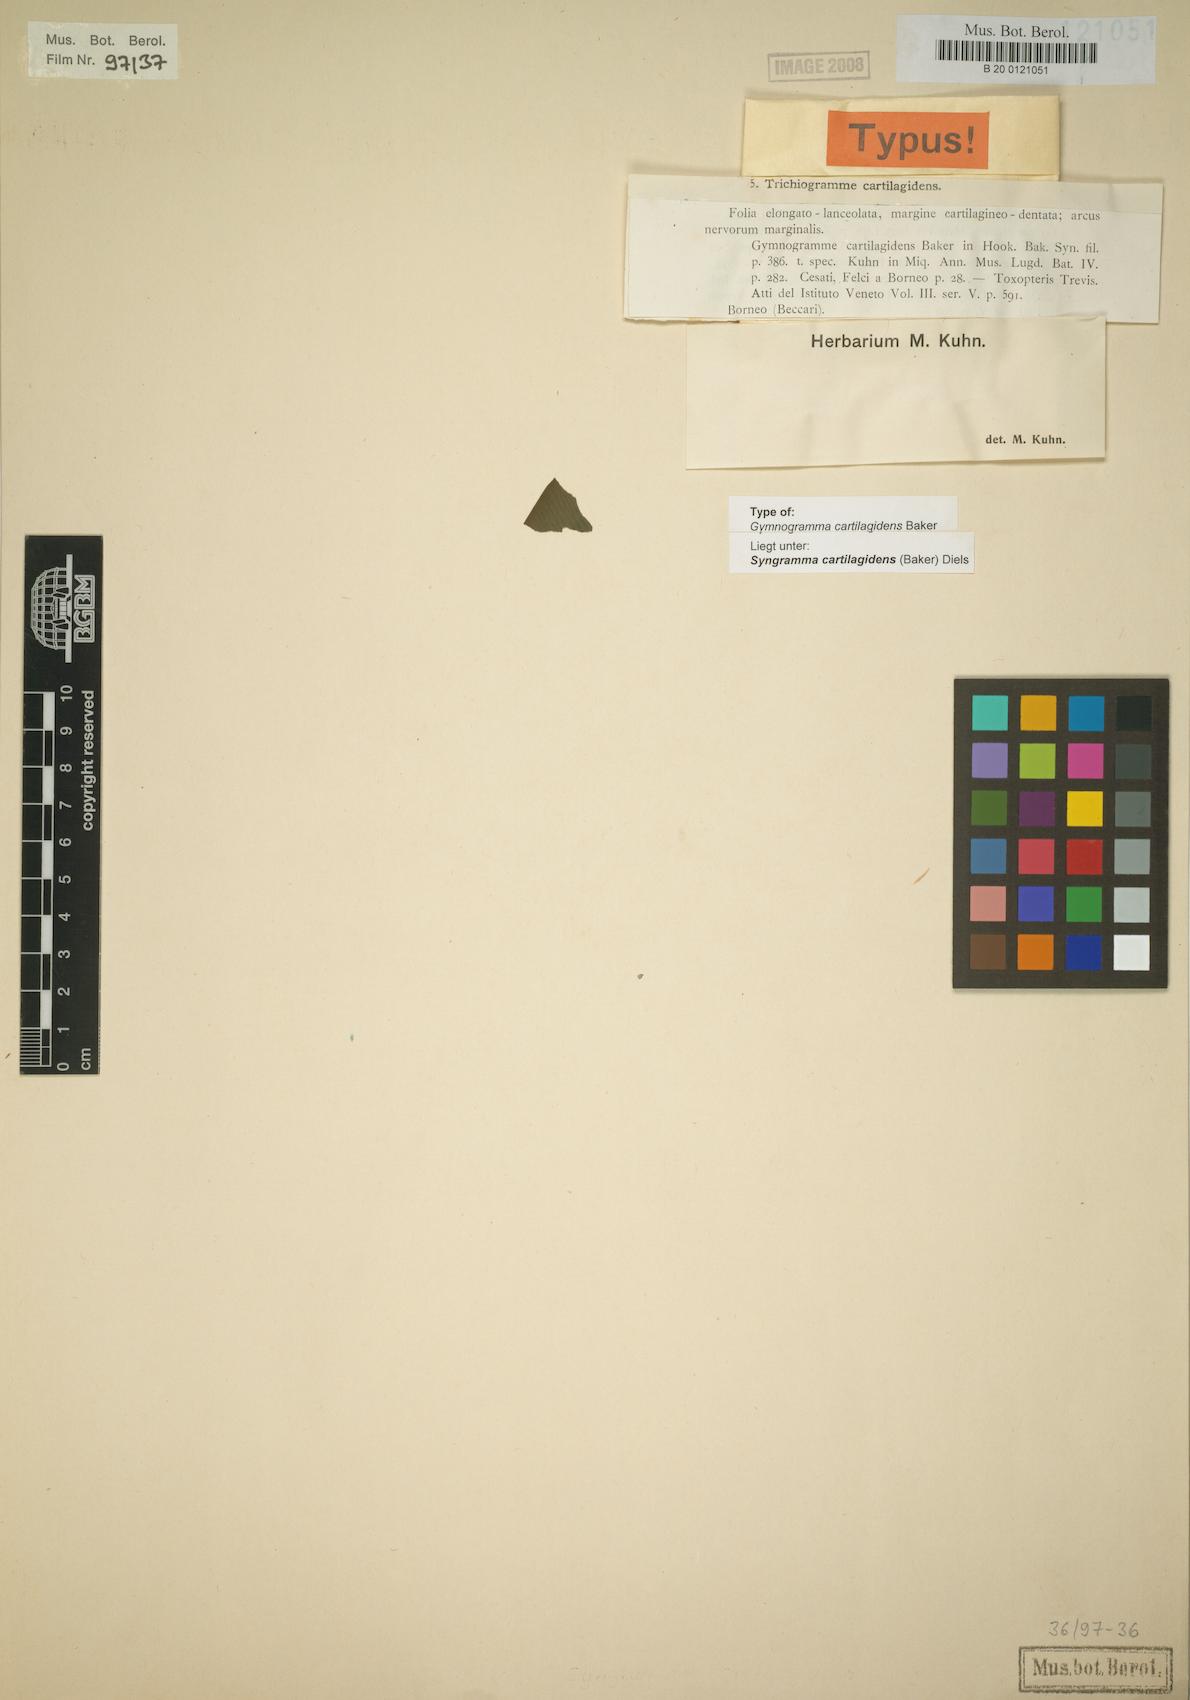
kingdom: Plantae
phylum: Tracheophyta
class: Polypodiopsida
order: Polypodiales
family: Pteridaceae
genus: Syngramma
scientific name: Syngramma cartilagidens
